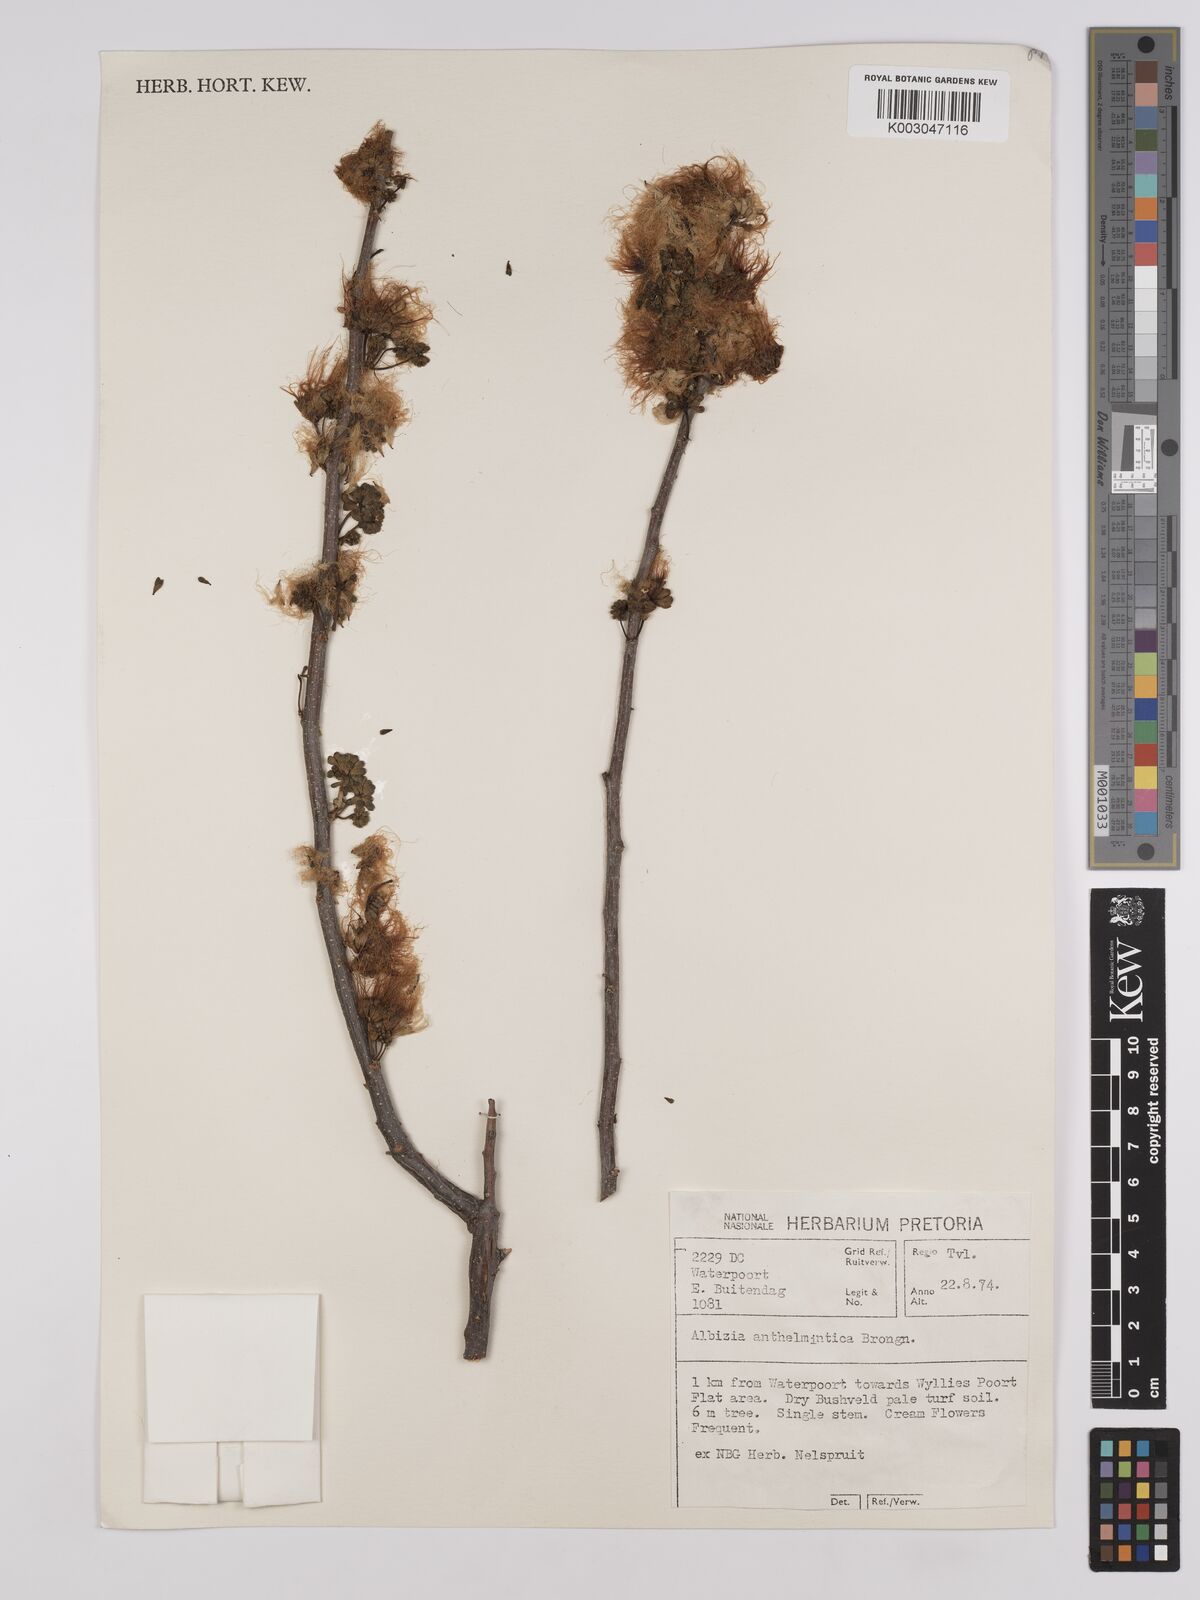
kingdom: Plantae
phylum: Tracheophyta
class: Magnoliopsida
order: Fabales
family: Fabaceae
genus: Albizia
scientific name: Albizia anthelmintica
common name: Worm-bark false-thorn
